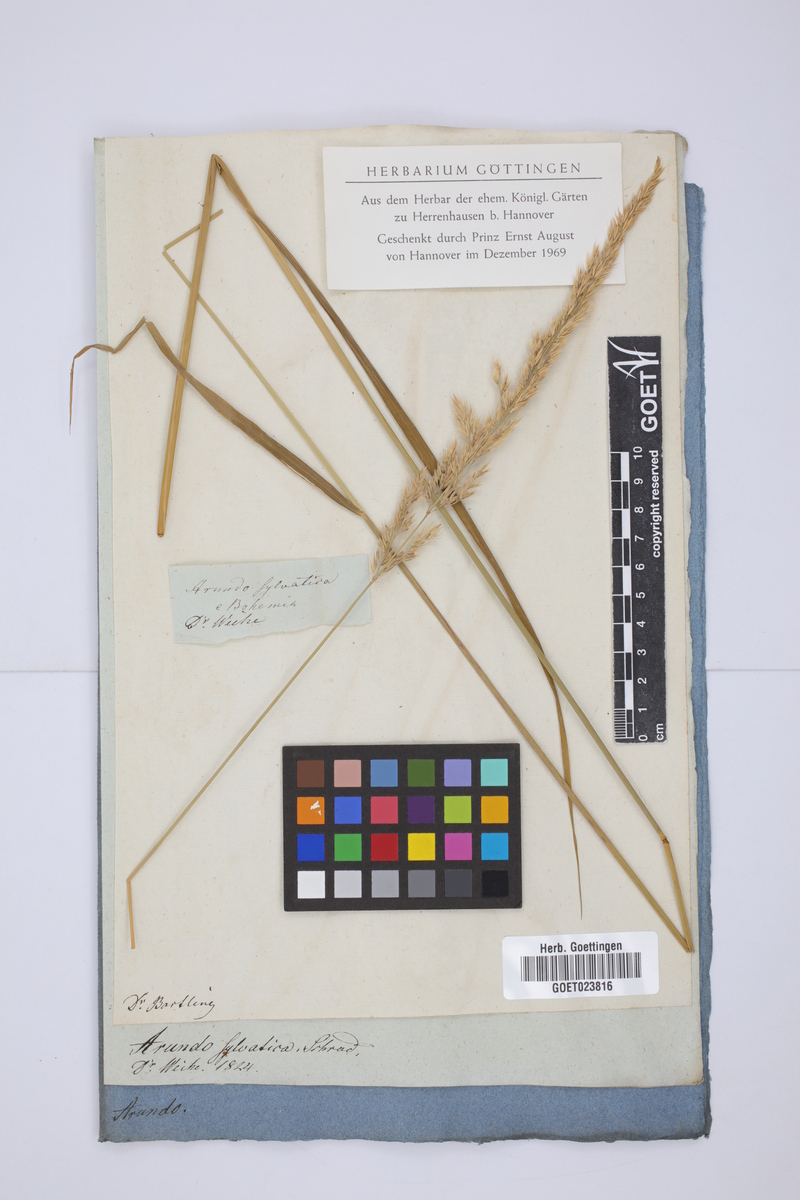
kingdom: Plantae
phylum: Tracheophyta
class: Liliopsida
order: Poales
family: Poaceae
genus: Calamagrostis
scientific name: Calamagrostis arundinacea
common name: Metskastik
